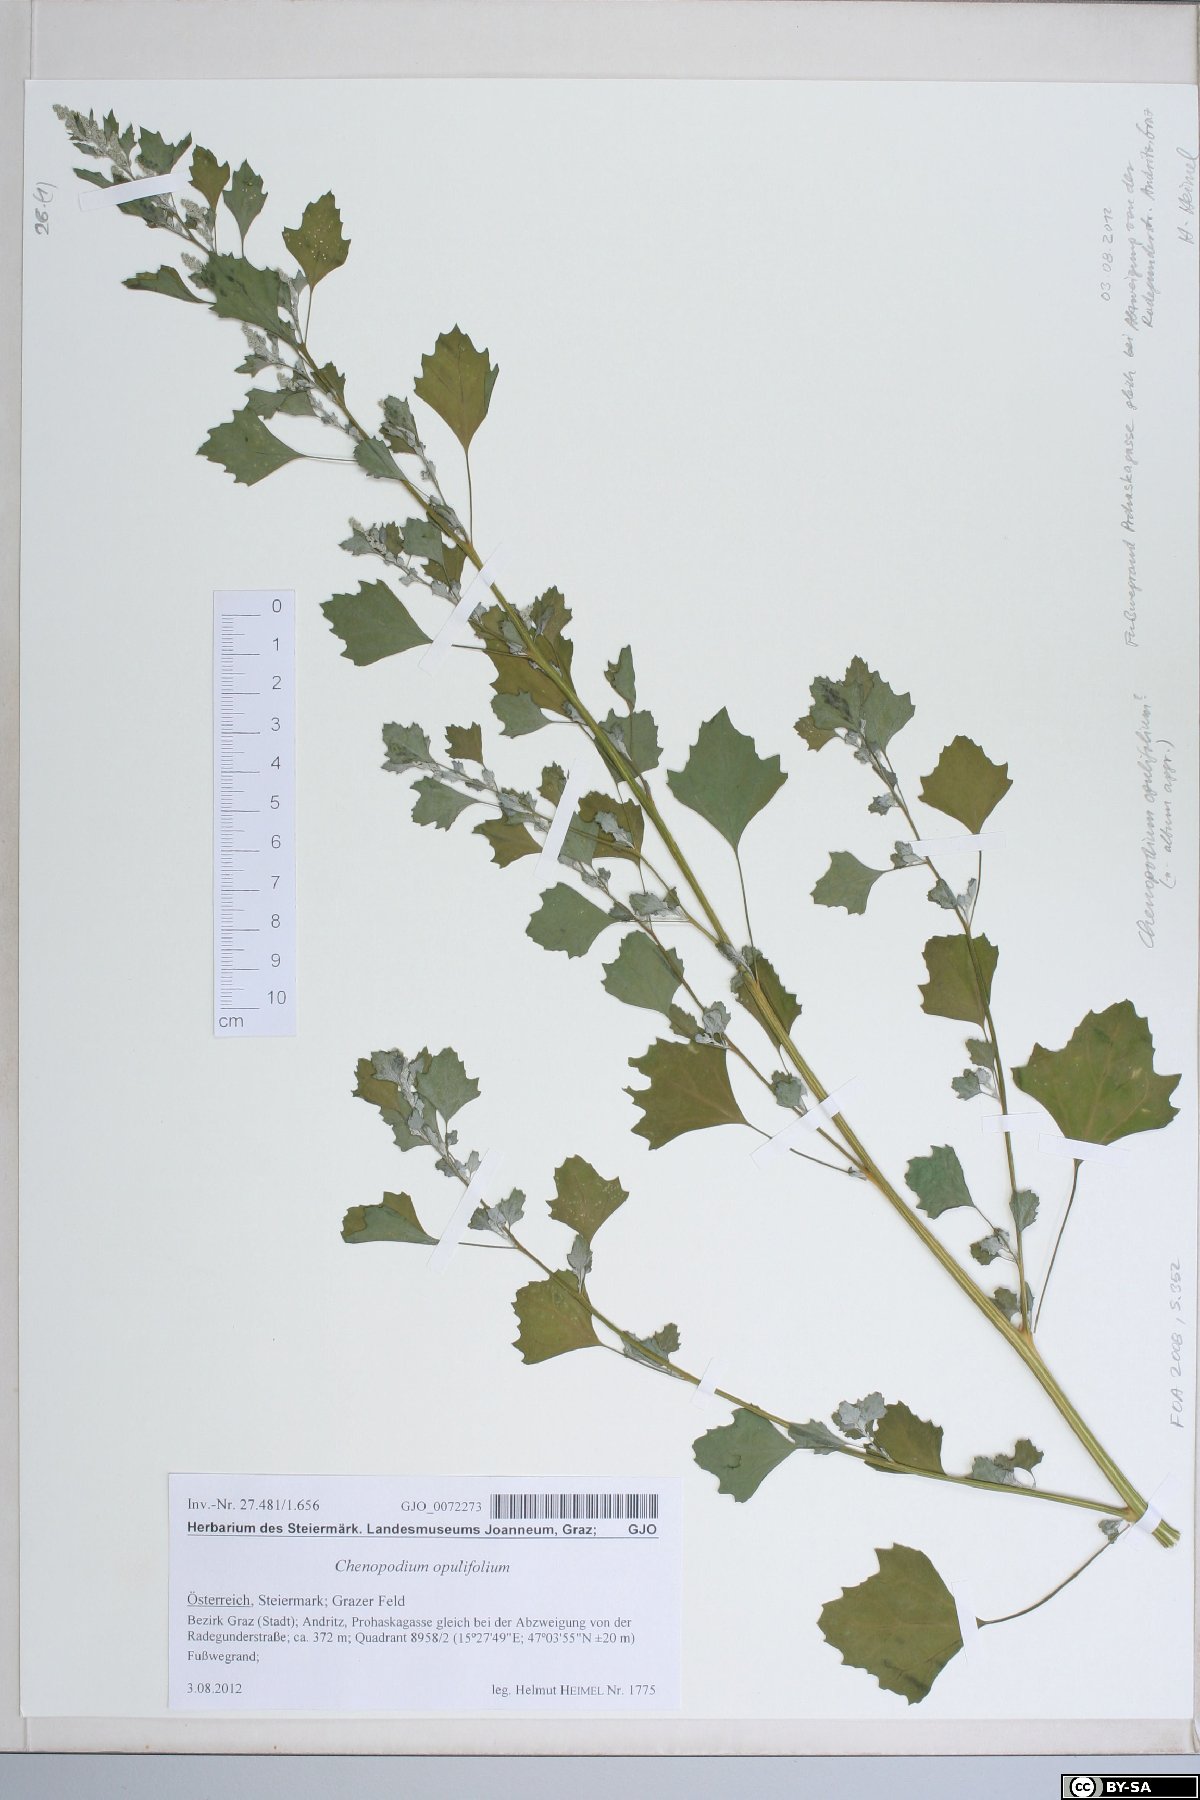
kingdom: Plantae
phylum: Tracheophyta
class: Magnoliopsida
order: Caryophyllales
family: Amaranthaceae
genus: Chenopodium
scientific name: Chenopodium opulifolium
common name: Grey goosefoot
